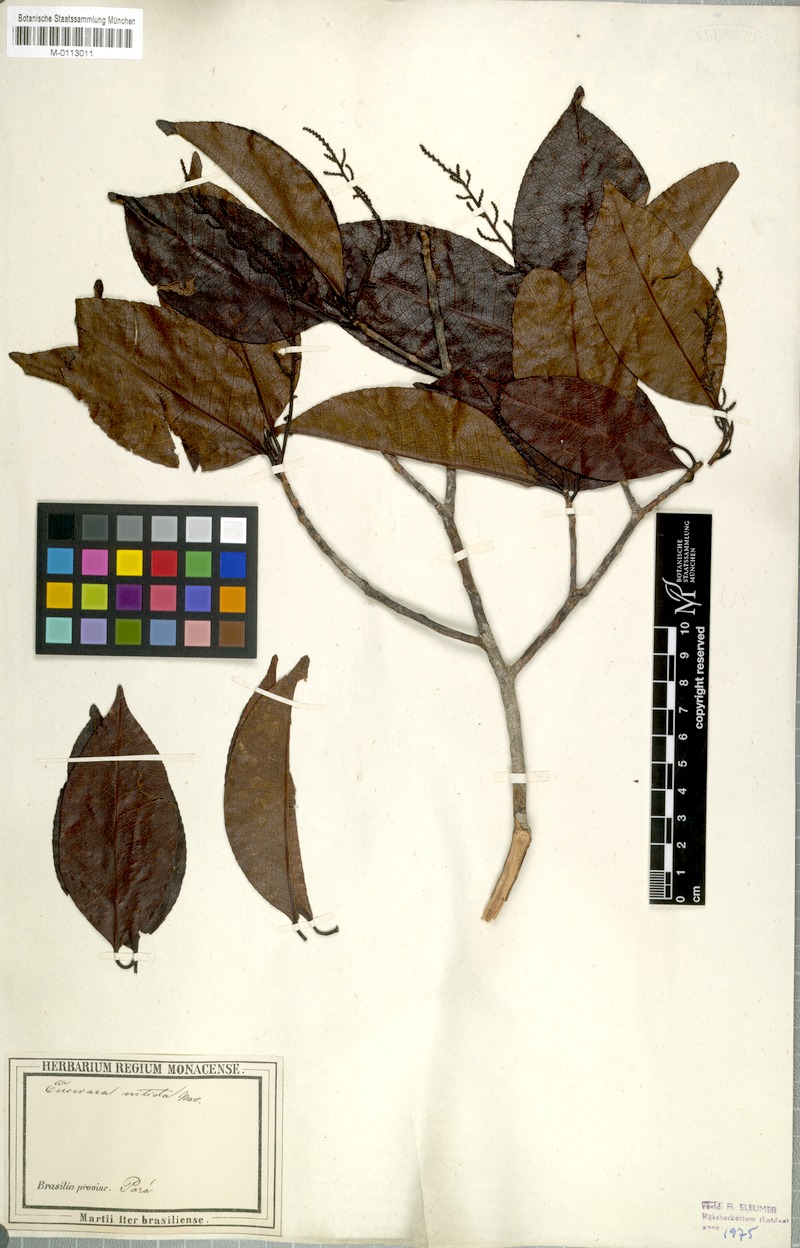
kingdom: Plantae
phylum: Tracheophyta
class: Magnoliopsida
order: Malpighiales
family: Salicaceae
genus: Casearia
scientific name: Casearia euceraea
